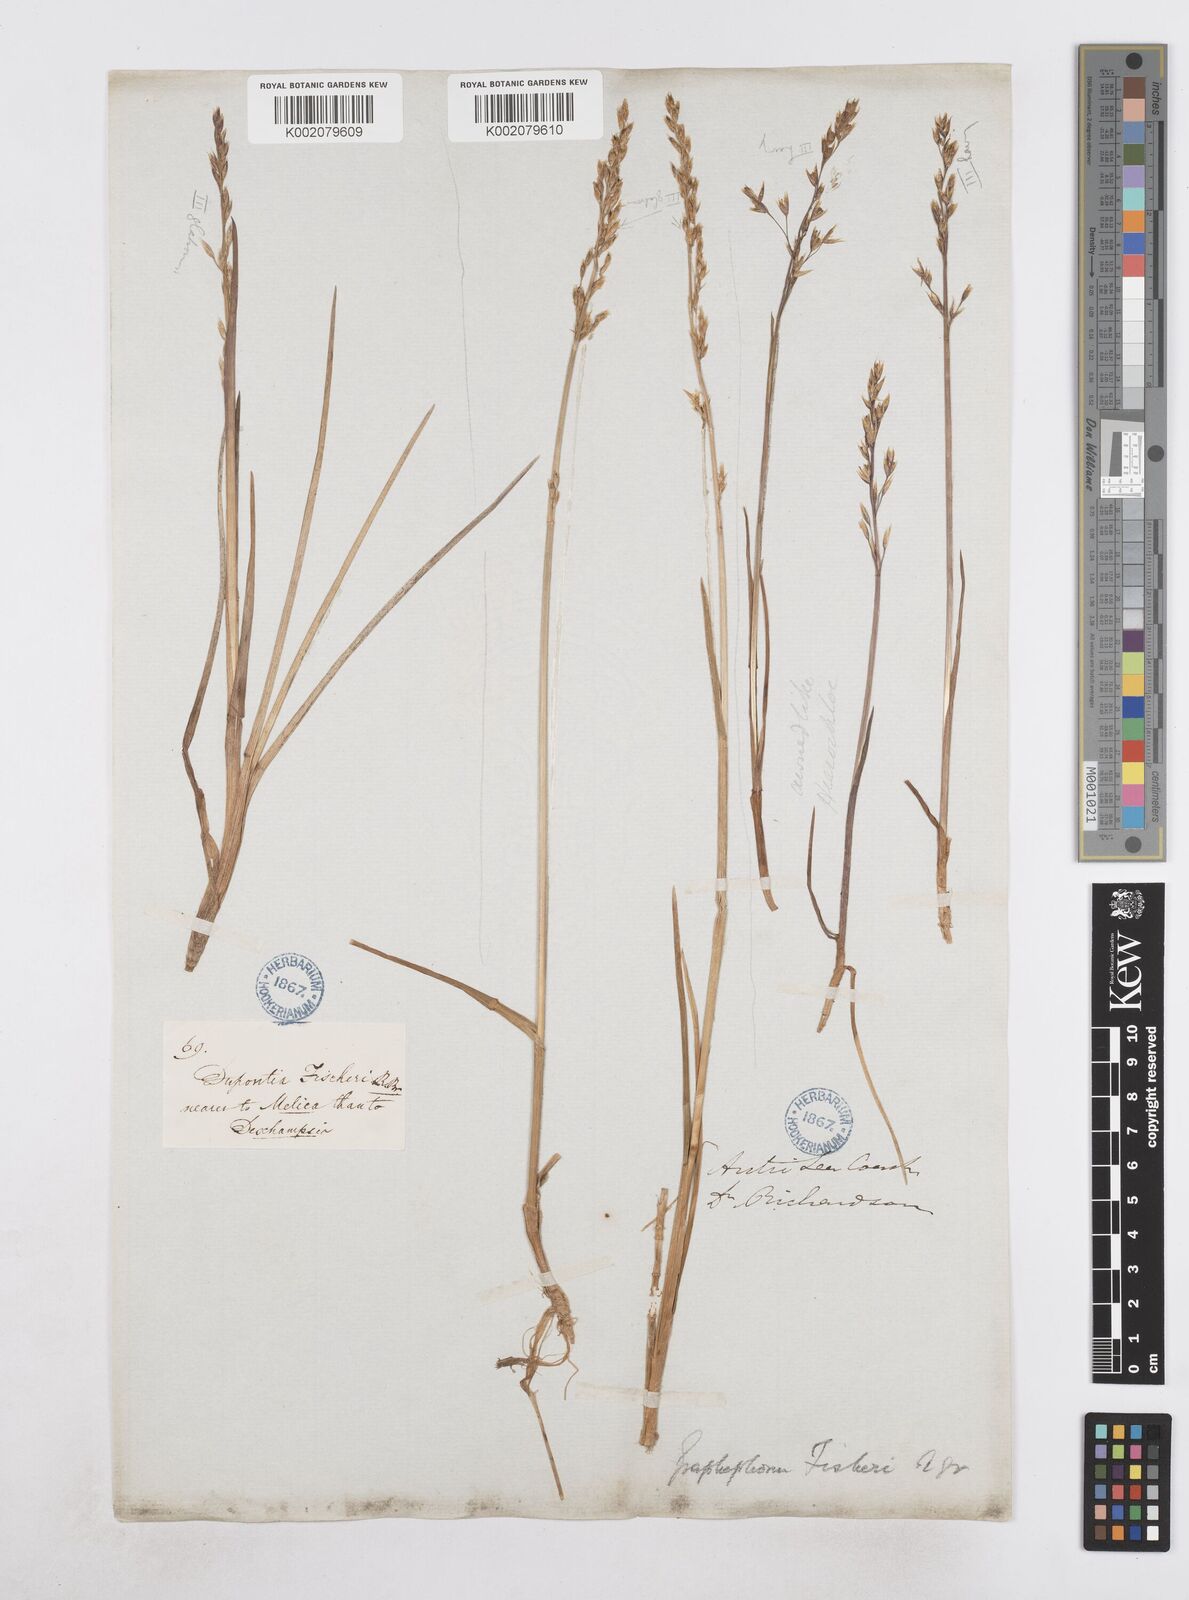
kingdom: Plantae
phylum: Tracheophyta
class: Liliopsida
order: Poales
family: Poaceae
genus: Dupontia
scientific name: Dupontia fisheri
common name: Tundra grass
